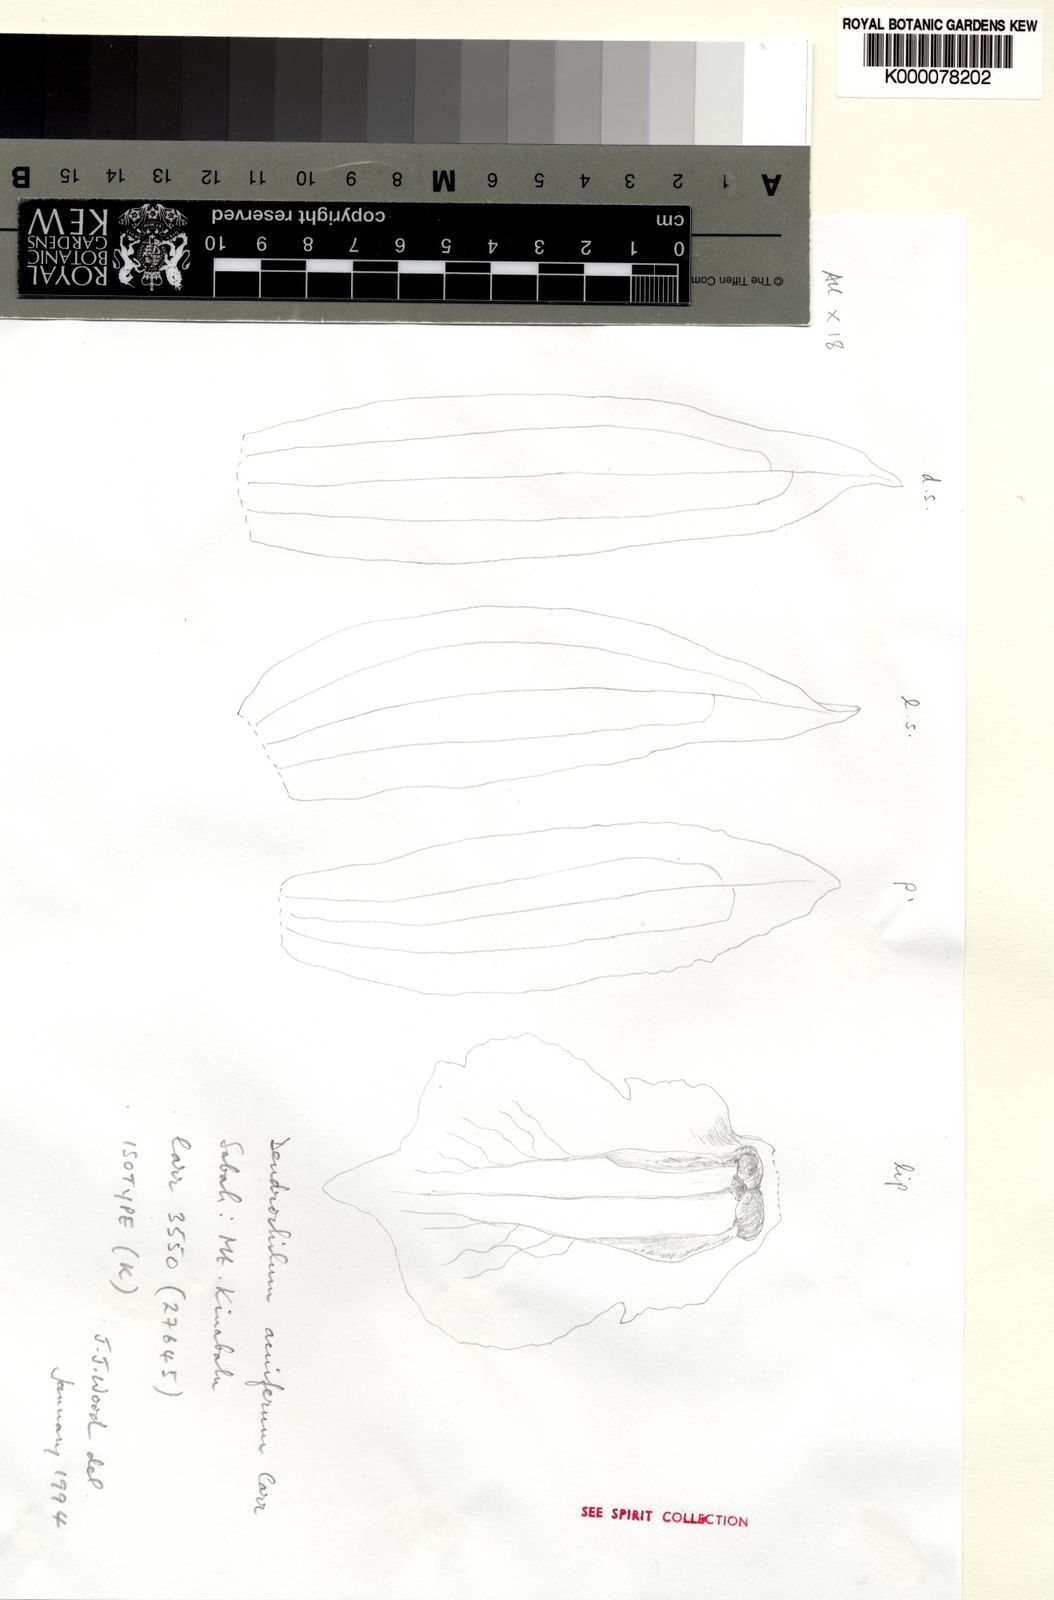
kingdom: Plantae
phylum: Tracheophyta
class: Liliopsida
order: Asparagales
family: Orchidaceae
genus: Coelogyne
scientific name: Coelogyne acuifera
